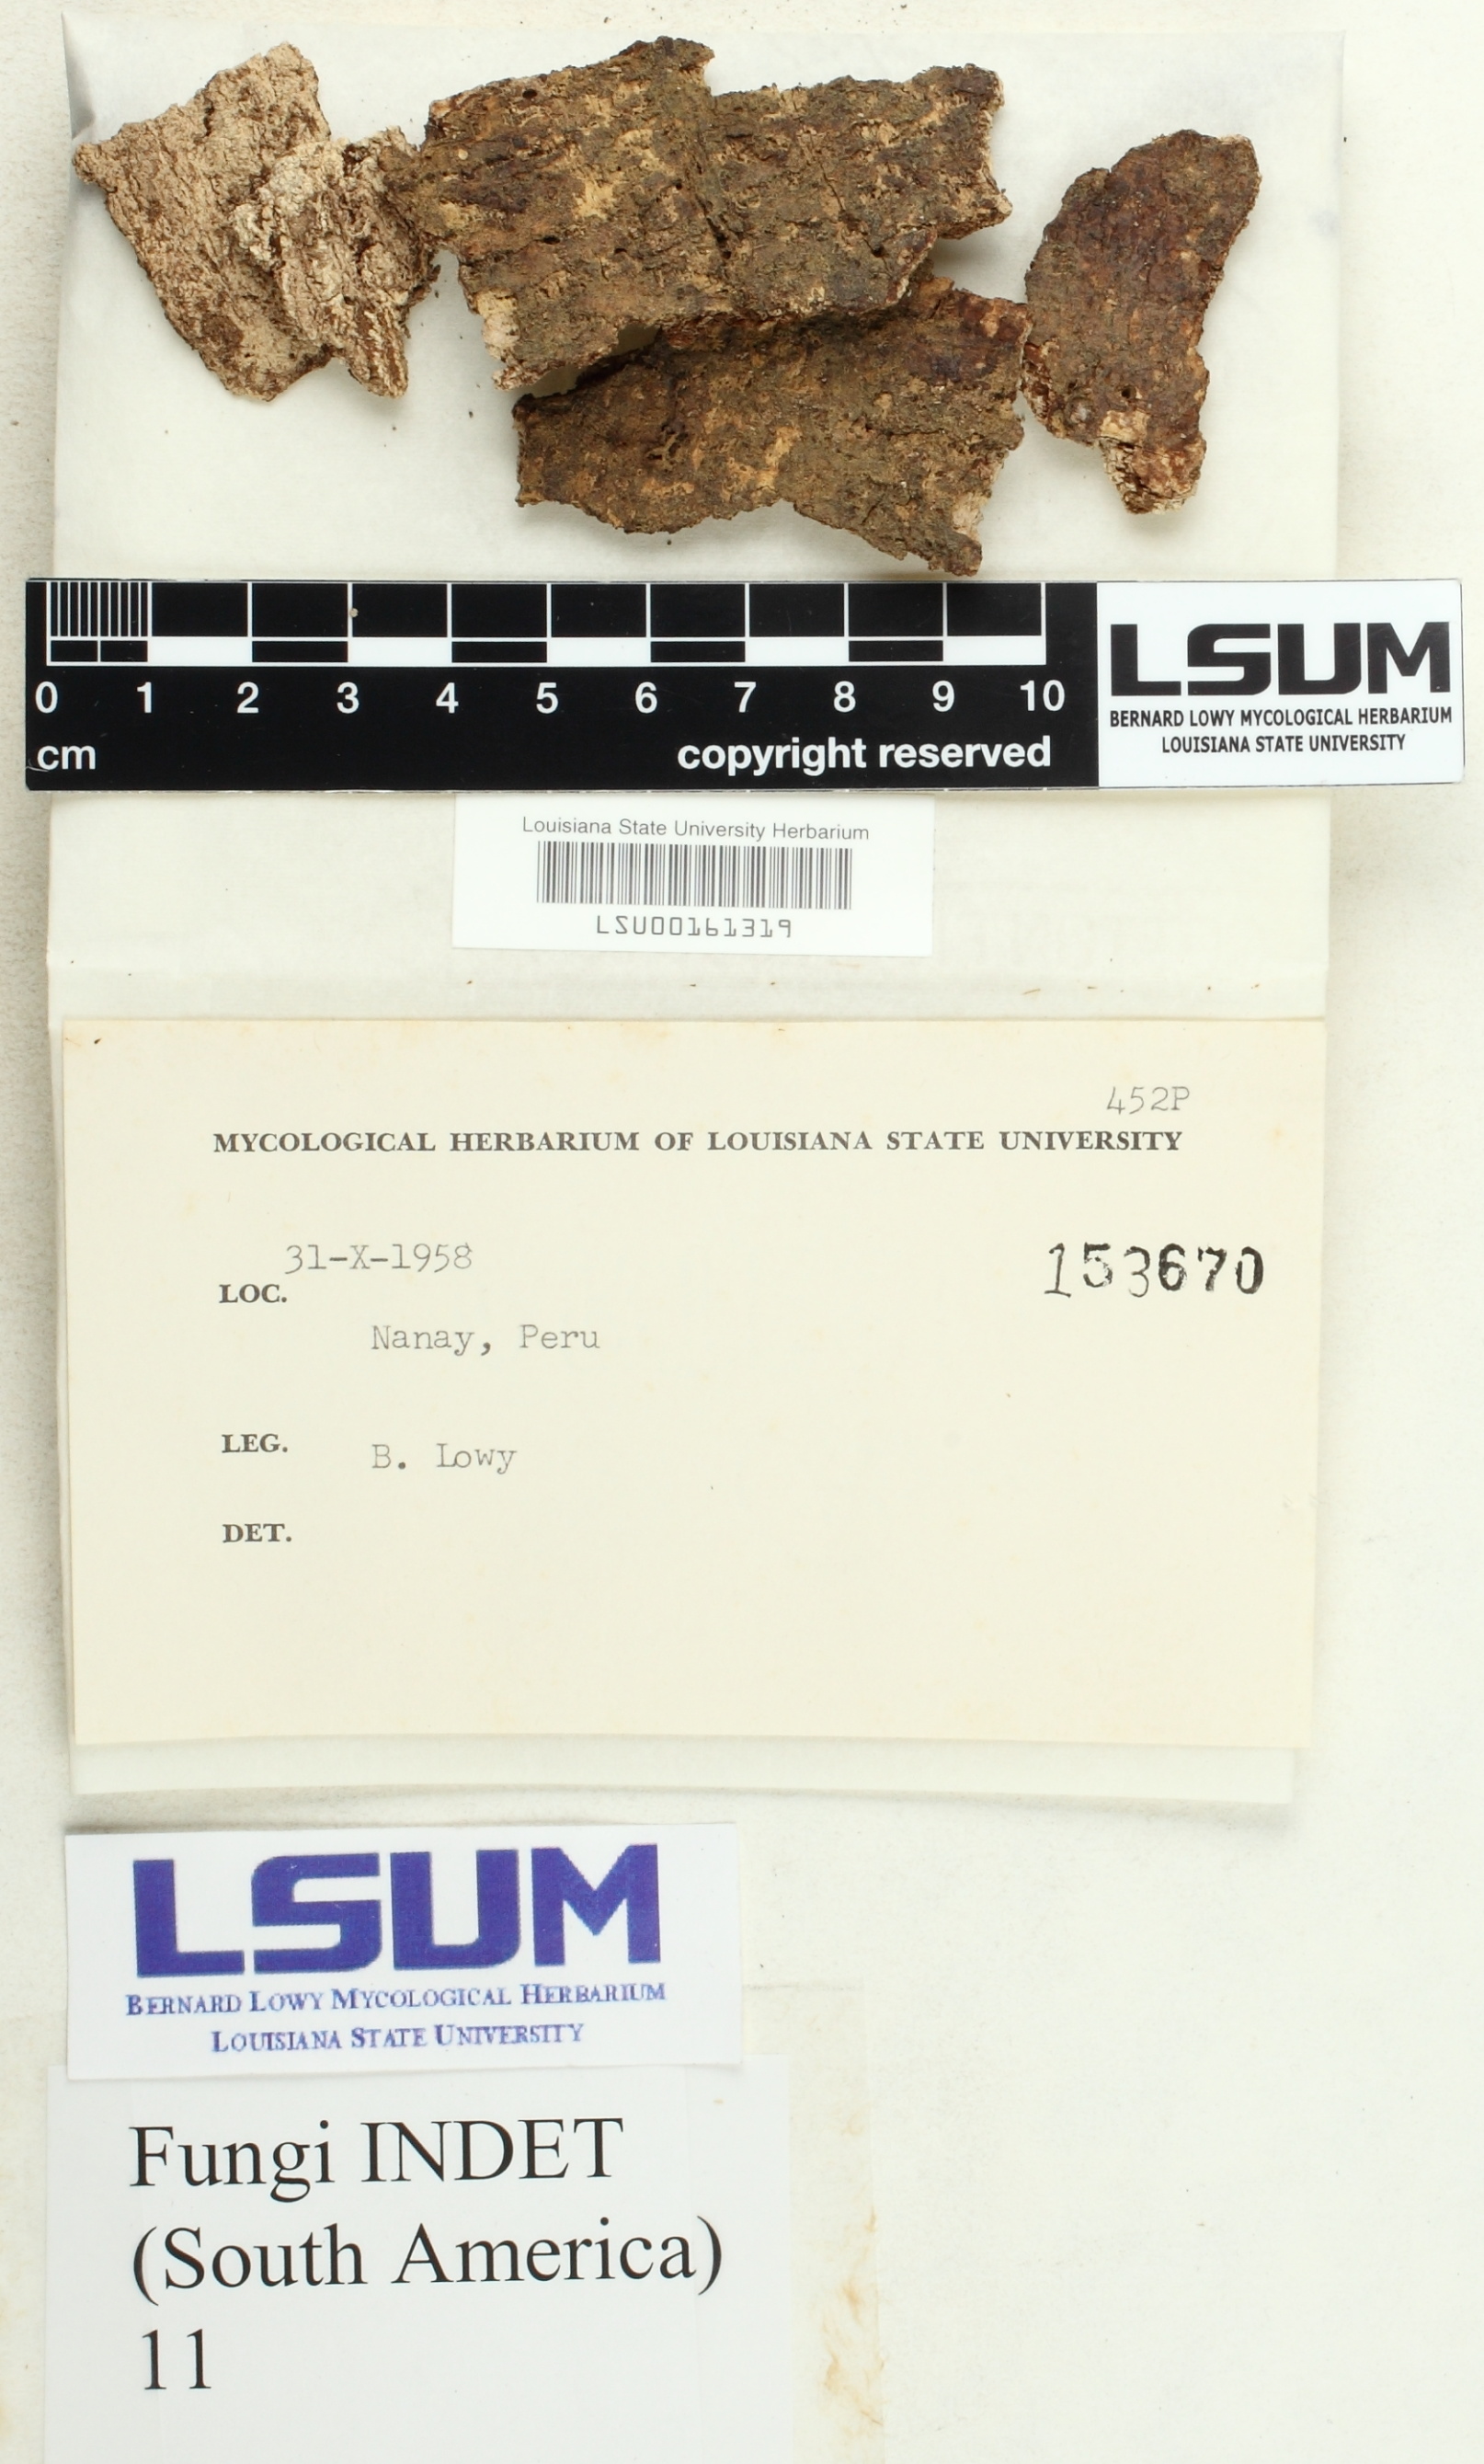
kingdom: Fungi
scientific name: Fungi
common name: Fungi
